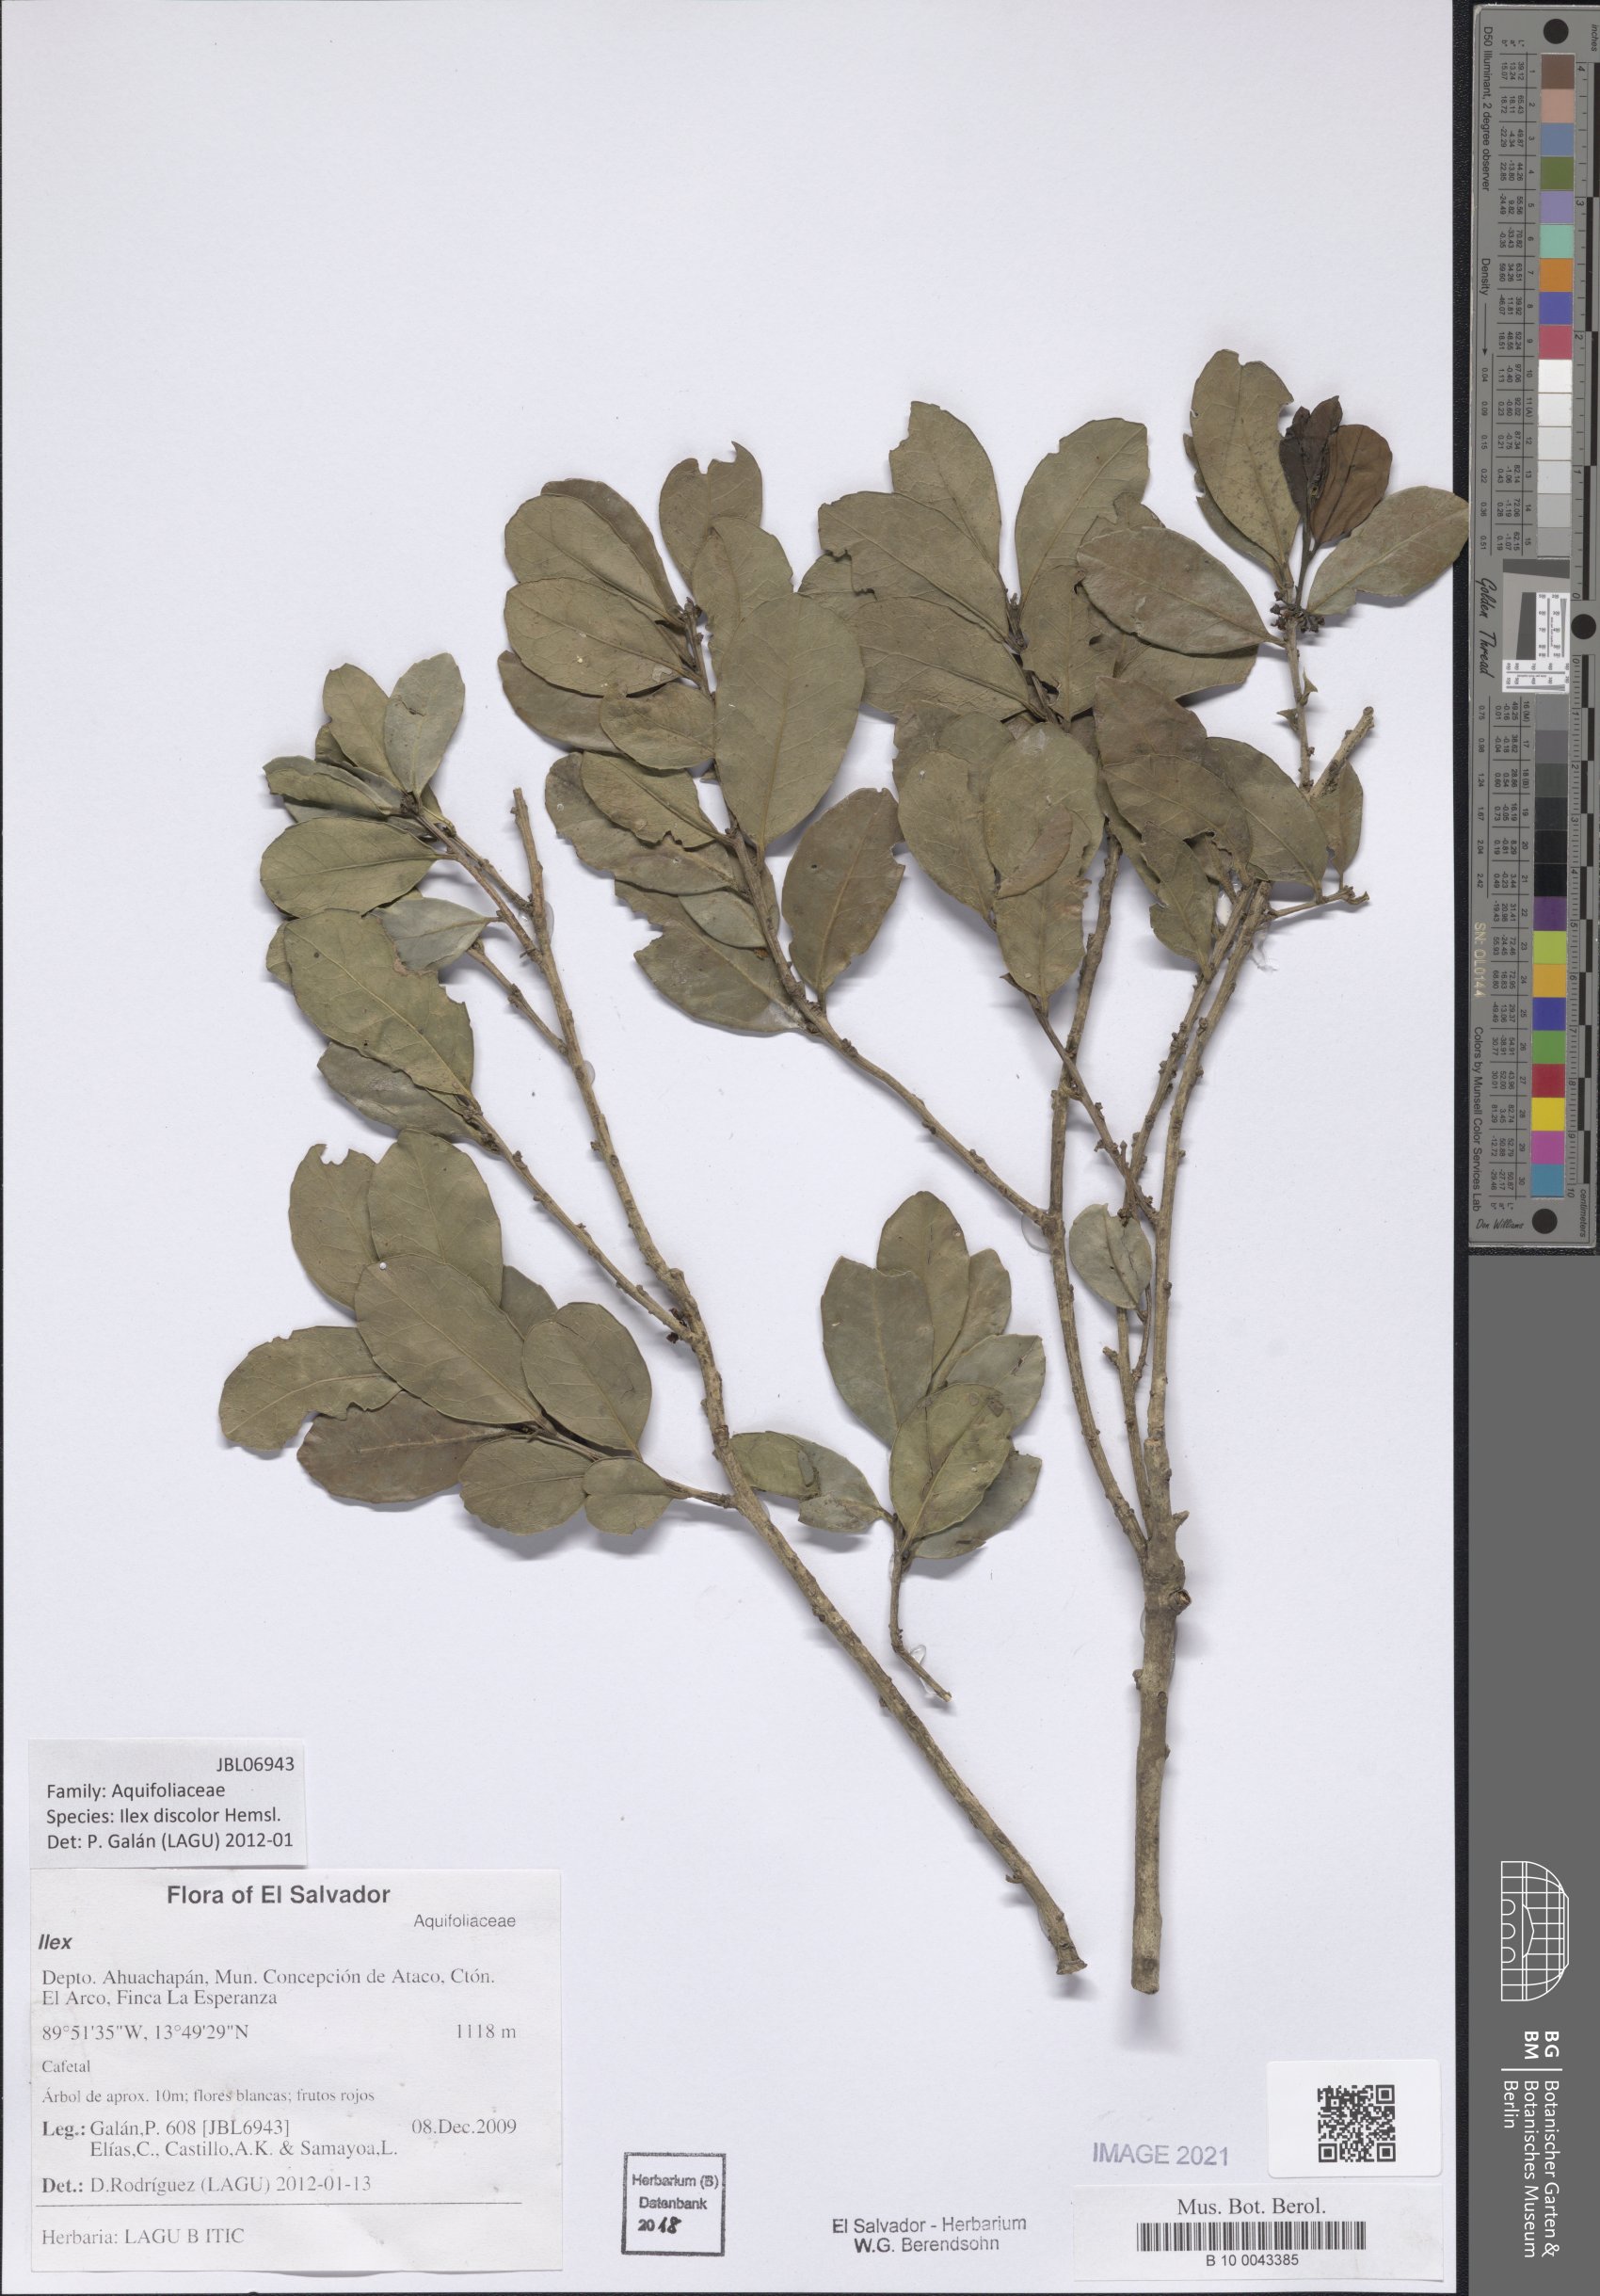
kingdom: Plantae
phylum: Tracheophyta
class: Magnoliopsida
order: Aquifoliales
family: Aquifoliaceae
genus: Ilex
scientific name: Ilex discolor
